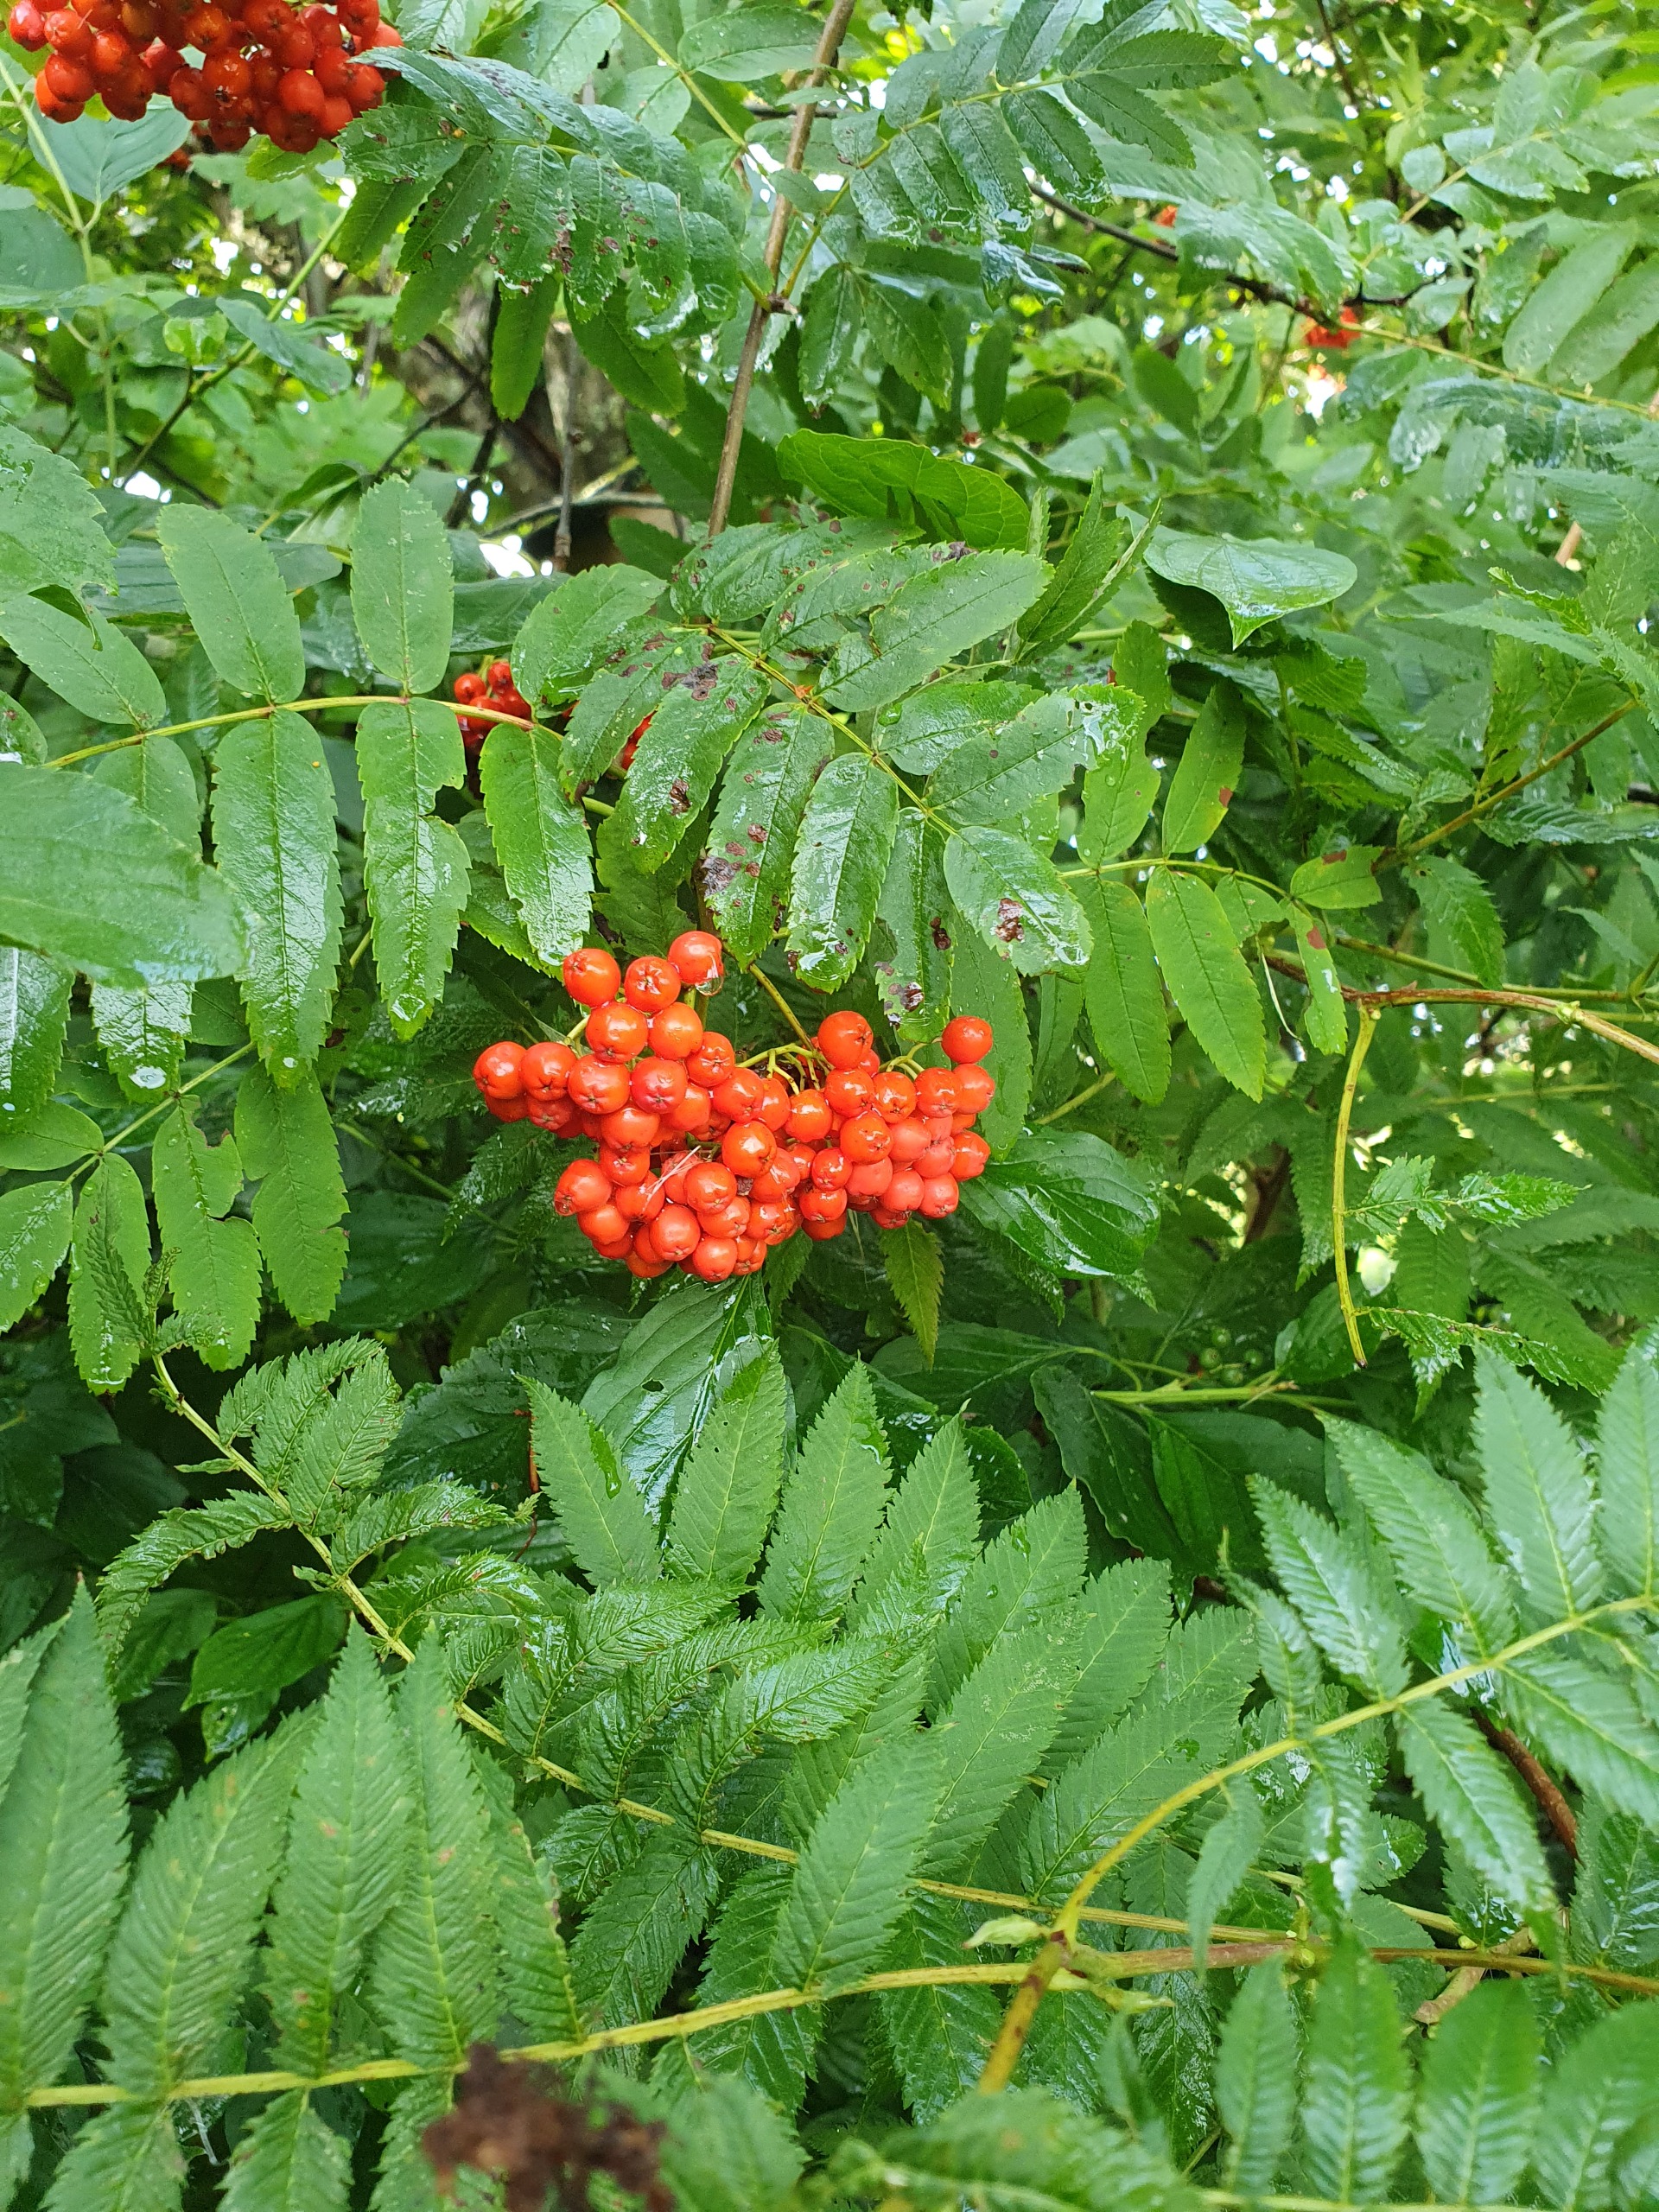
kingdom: Plantae
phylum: Tracheophyta
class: Magnoliopsida
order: Rosales
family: Rosaceae
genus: Sorbus
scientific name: Sorbus aucuparia
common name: Almindelig røn
